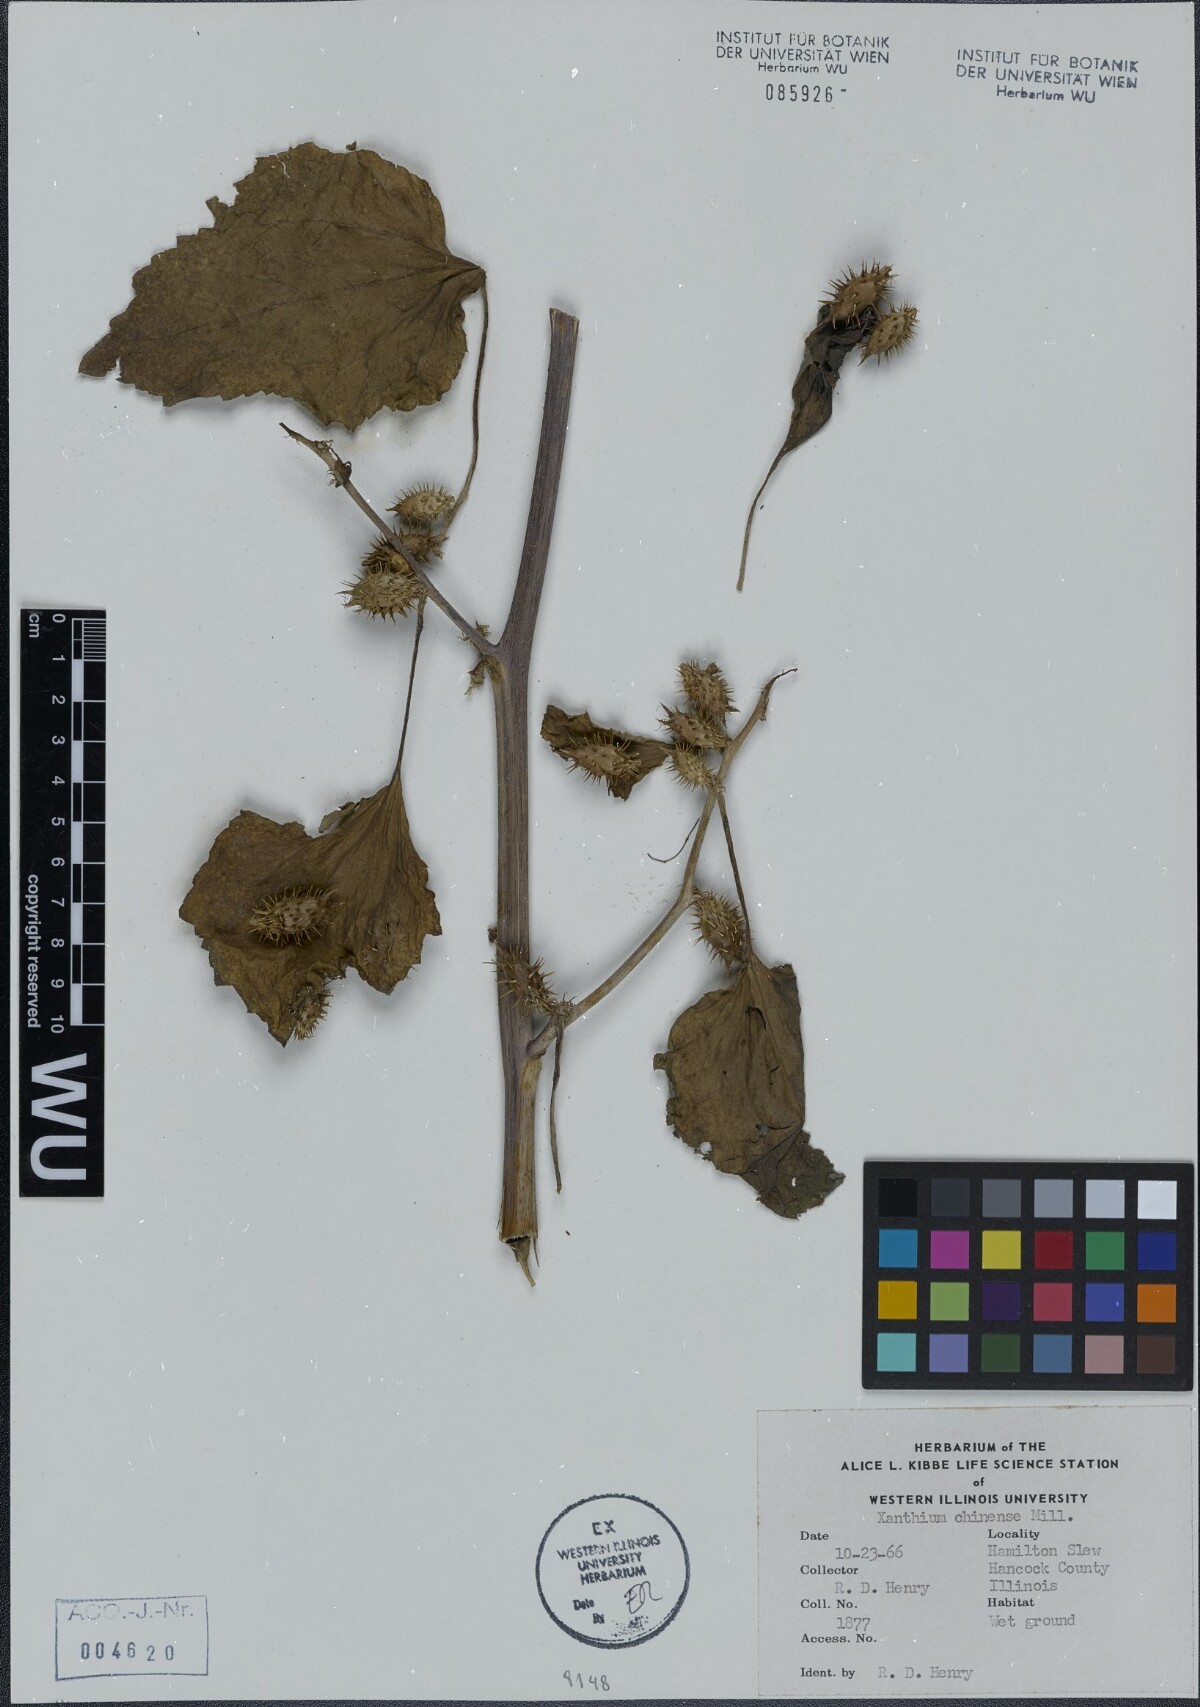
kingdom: Plantae
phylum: Tracheophyta
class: Magnoliopsida
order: Asterales
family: Asteraceae
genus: Xanthium
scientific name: Xanthium occidentale
